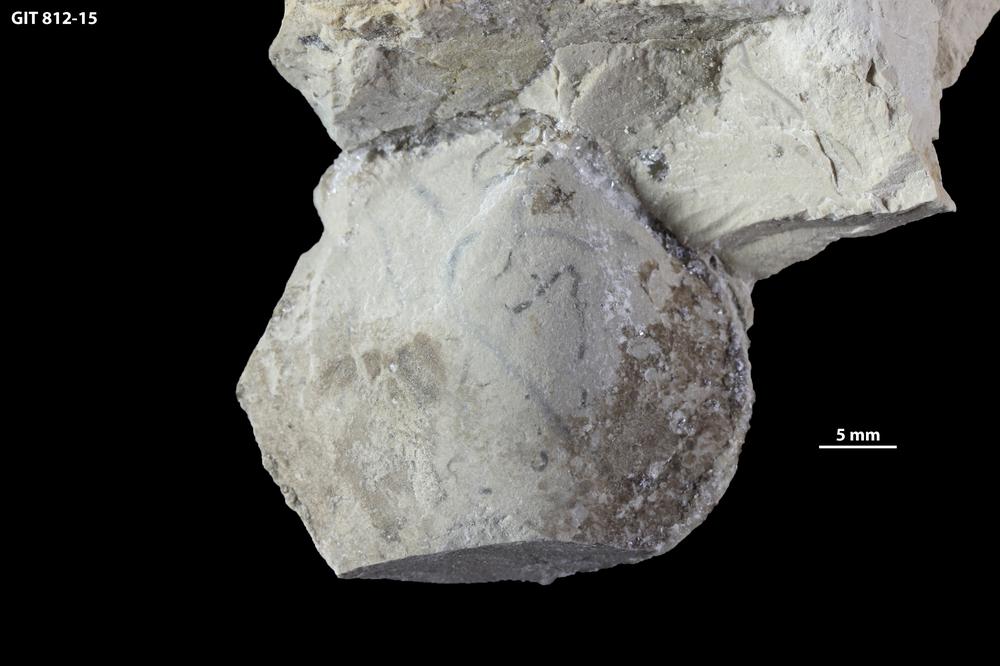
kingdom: Animalia
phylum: Mollusca
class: Bivalvia
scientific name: Bivalvia
